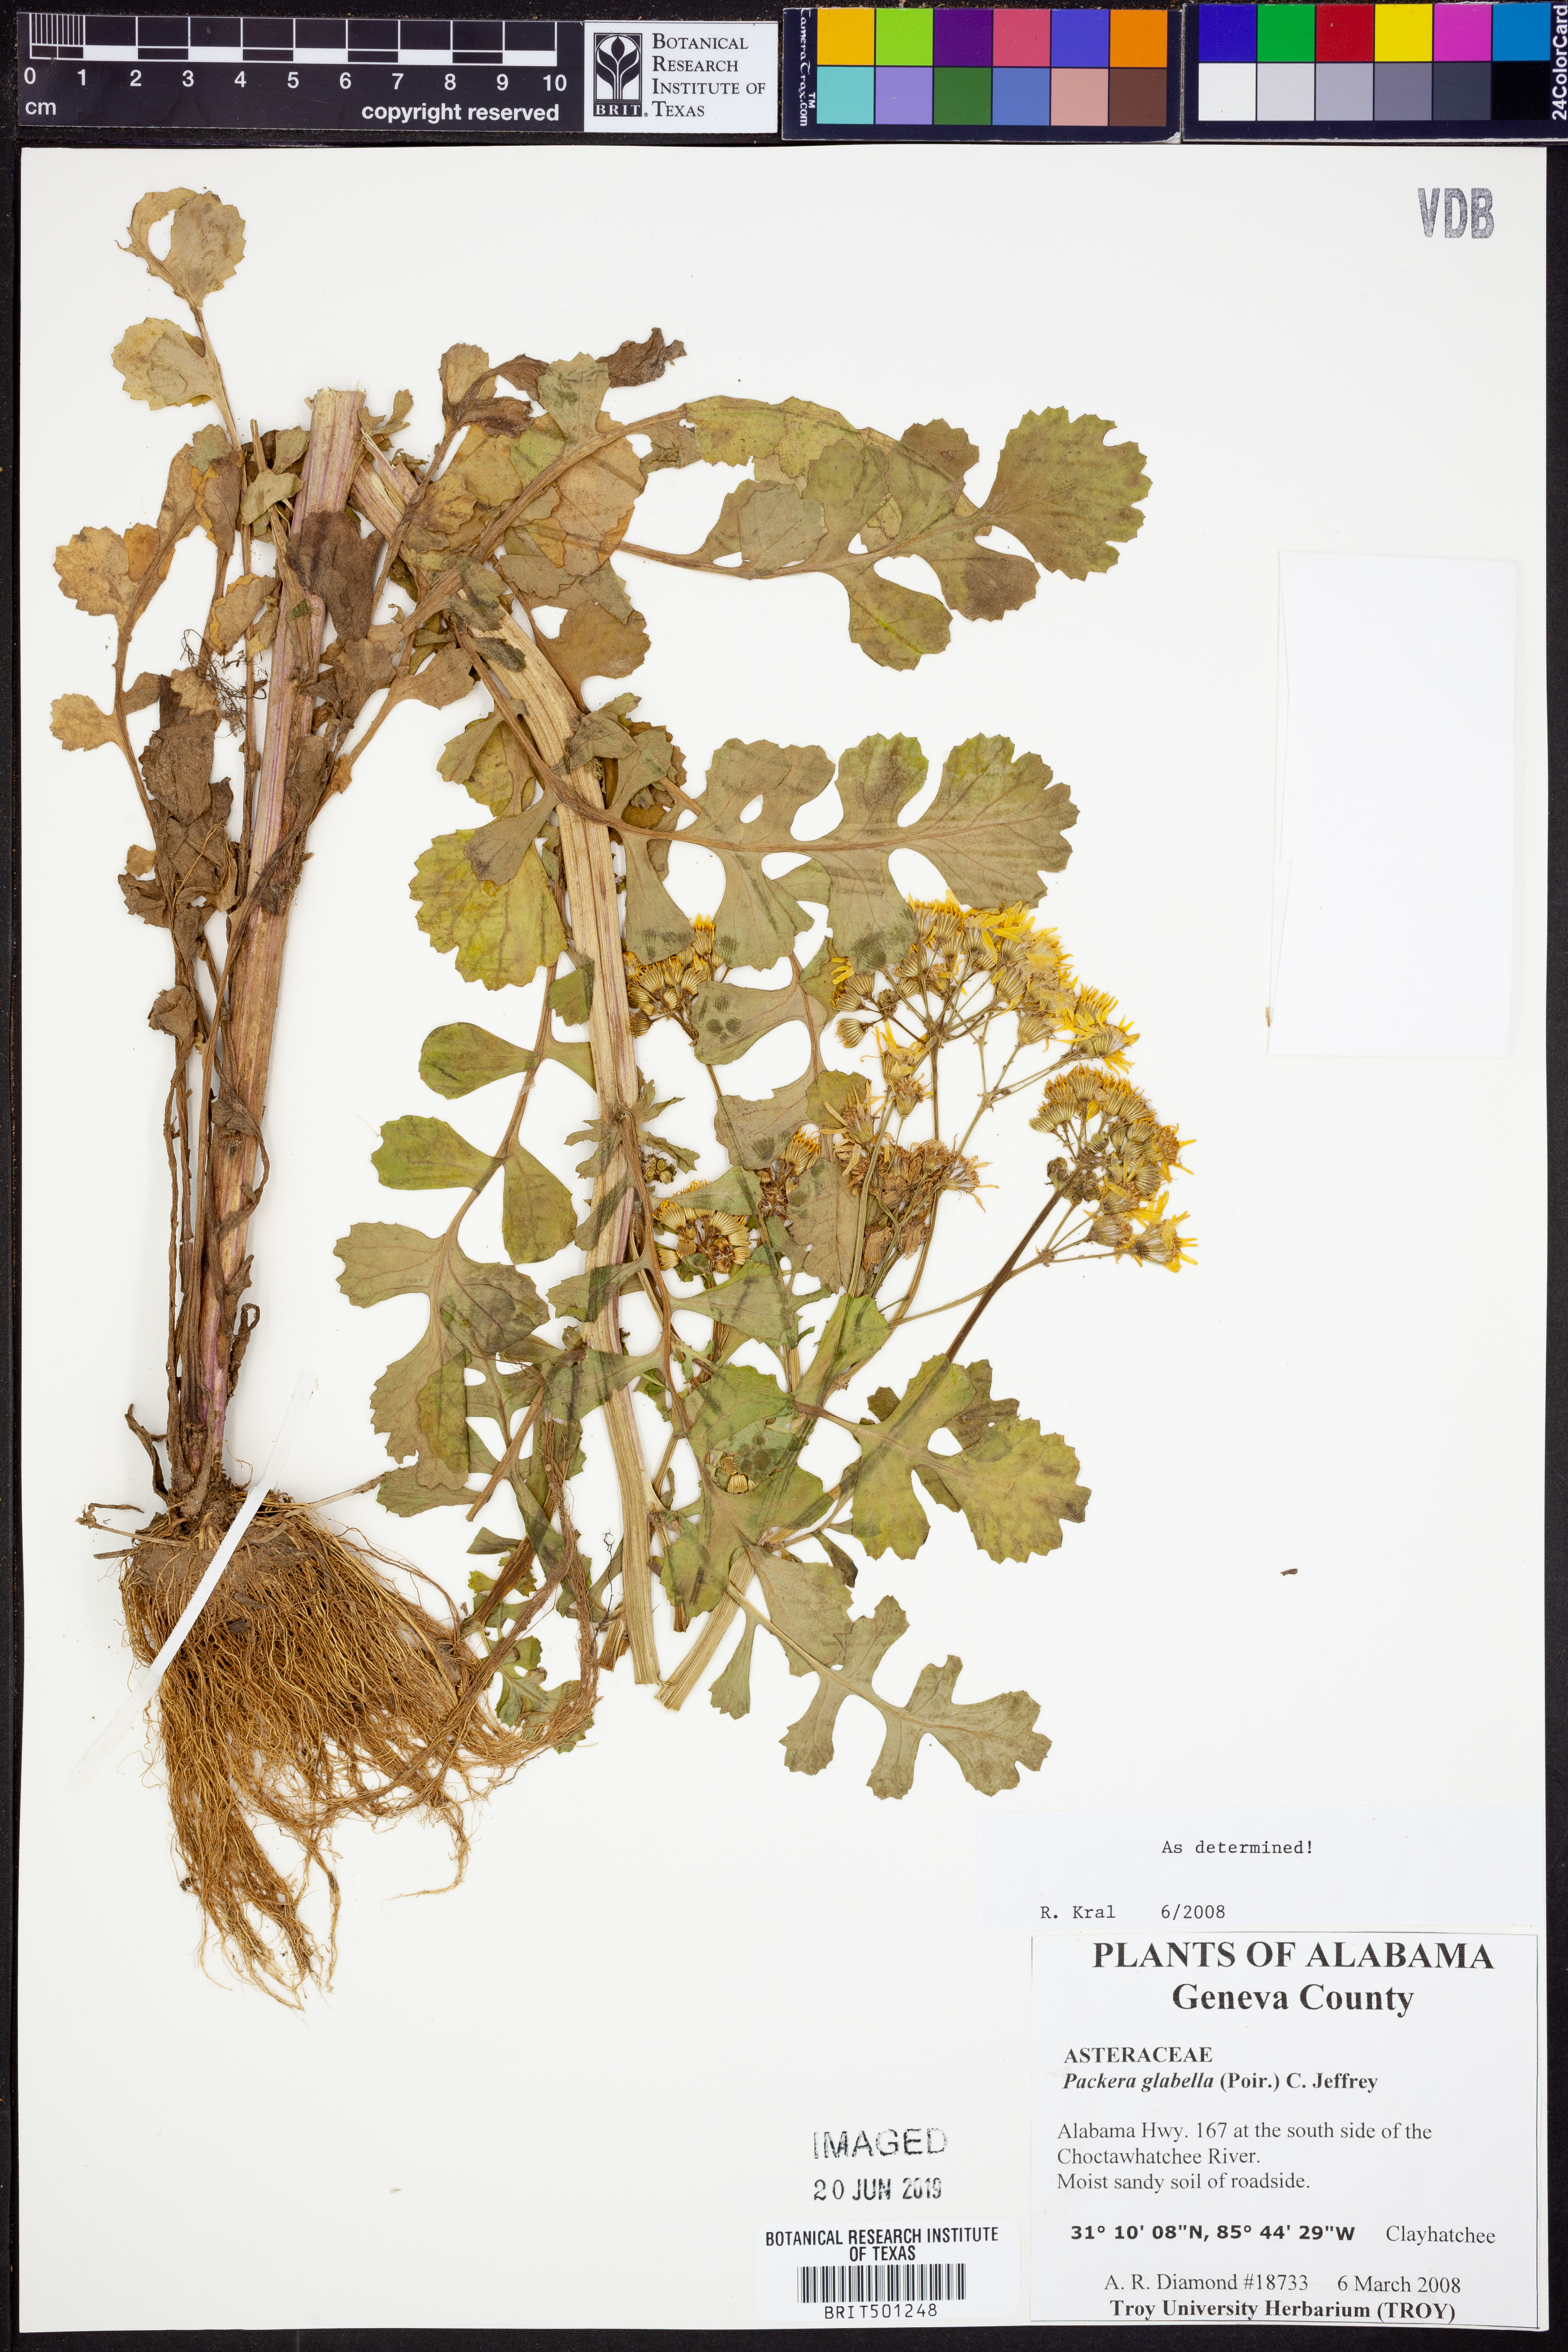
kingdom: Plantae
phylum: Tracheophyta
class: Magnoliopsida
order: Asterales
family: Asteraceae
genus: Packera
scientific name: Packera glabella
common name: Butterweed
